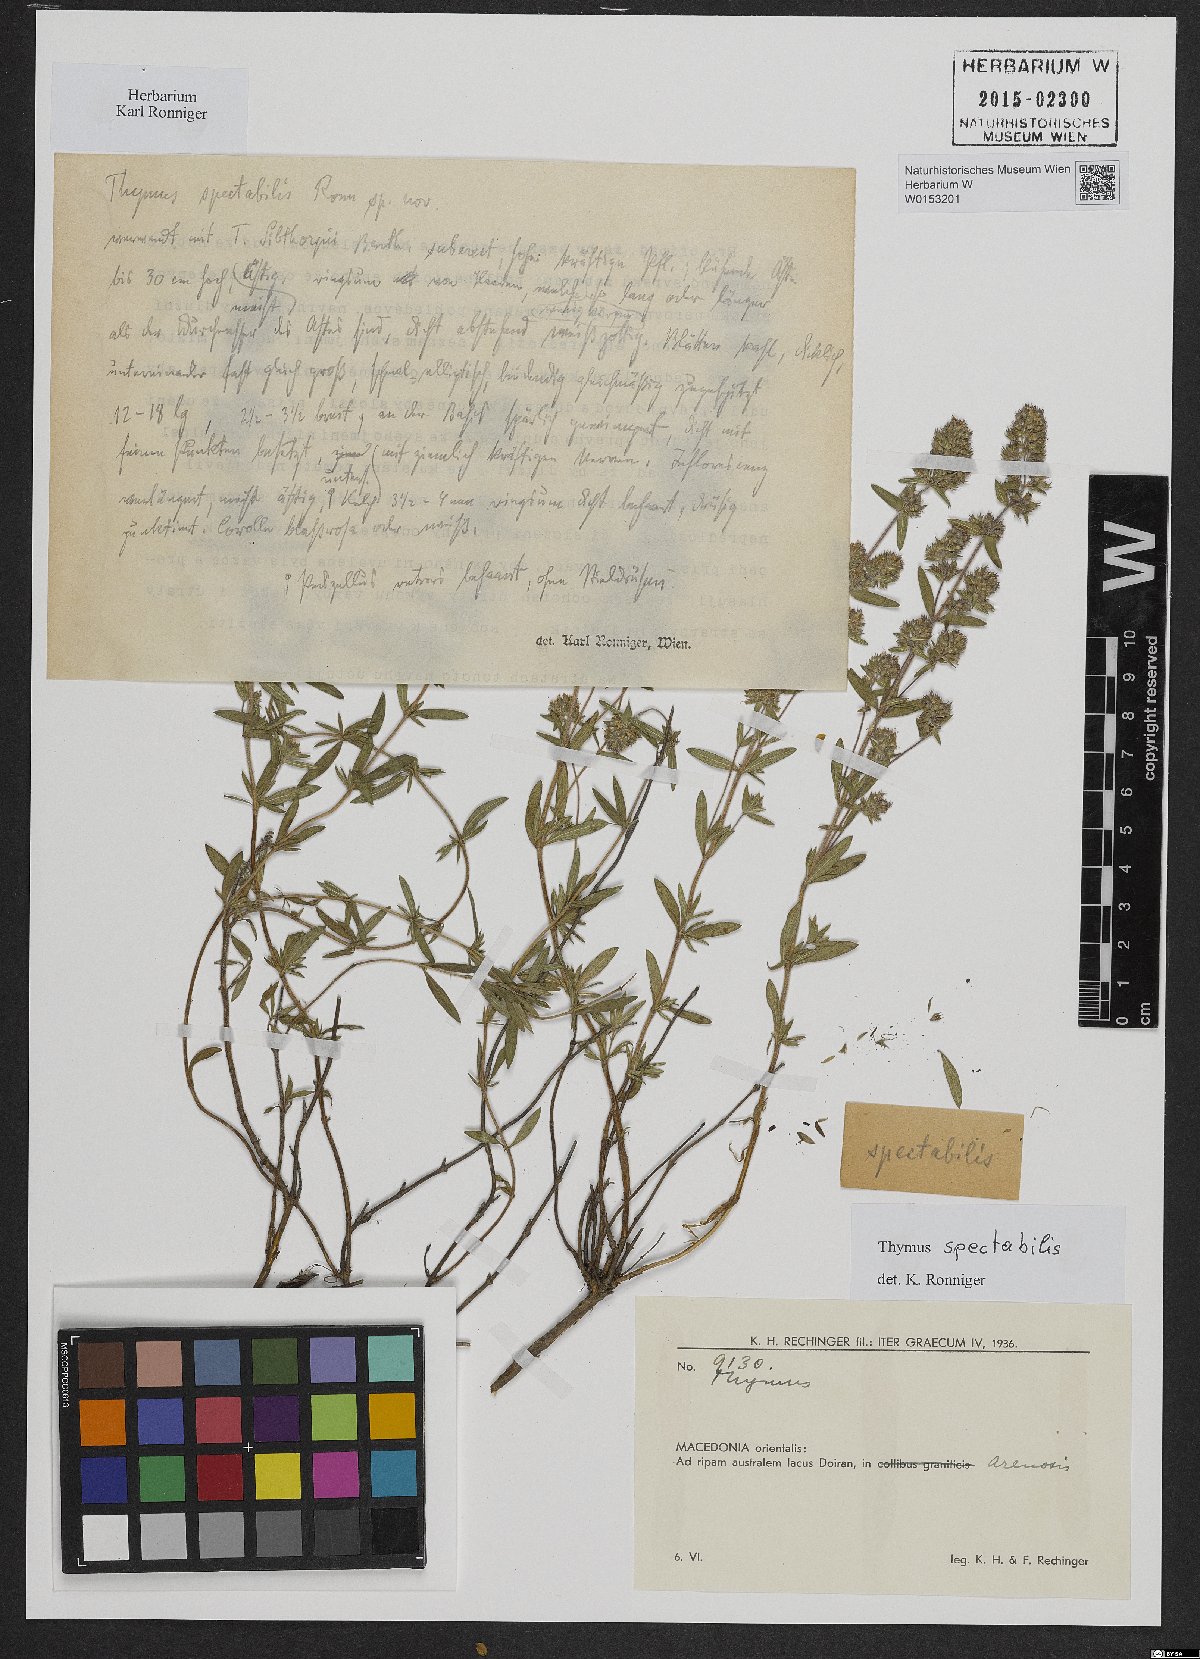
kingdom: Plantae
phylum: Tracheophyta
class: Magnoliopsida
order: Lamiales
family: Lamiaceae
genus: Thymus
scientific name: Thymus sibthorpii
